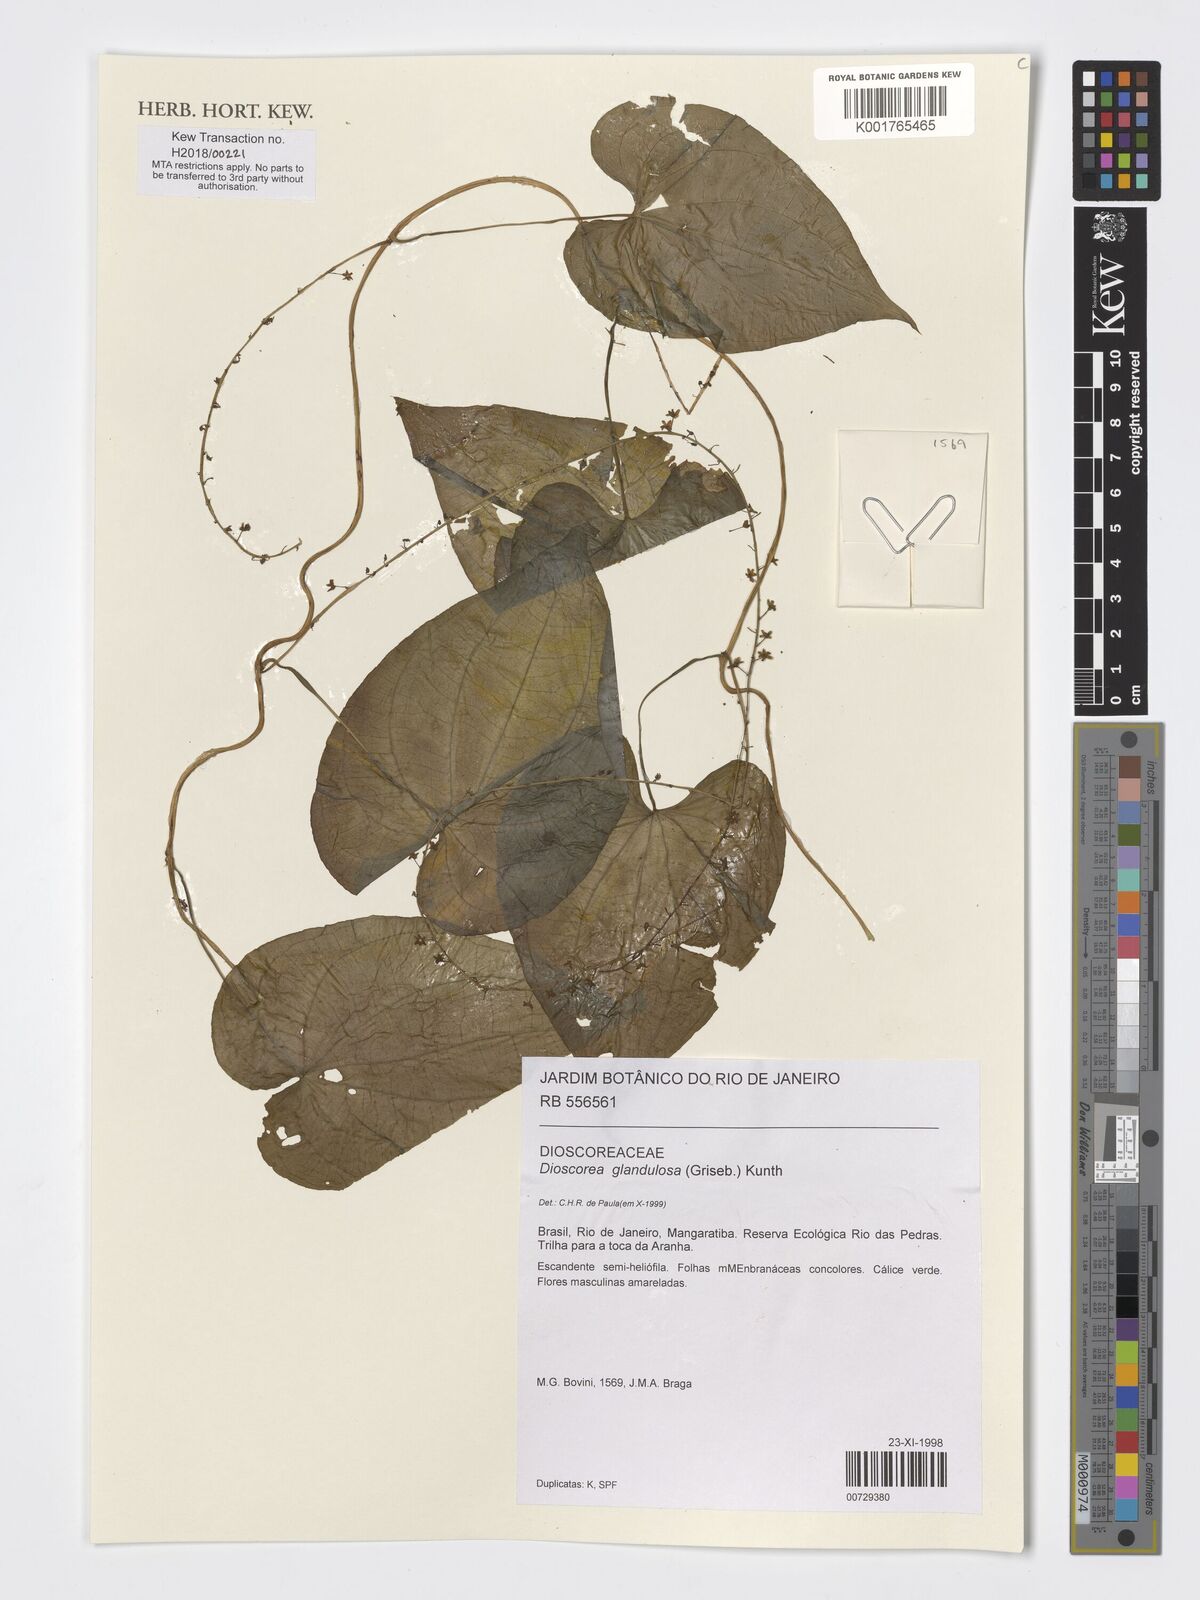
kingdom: Plantae
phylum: Tracheophyta
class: Liliopsida
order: Dioscoreales
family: Dioscoreaceae
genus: Dioscorea
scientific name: Dioscorea glandulosa
